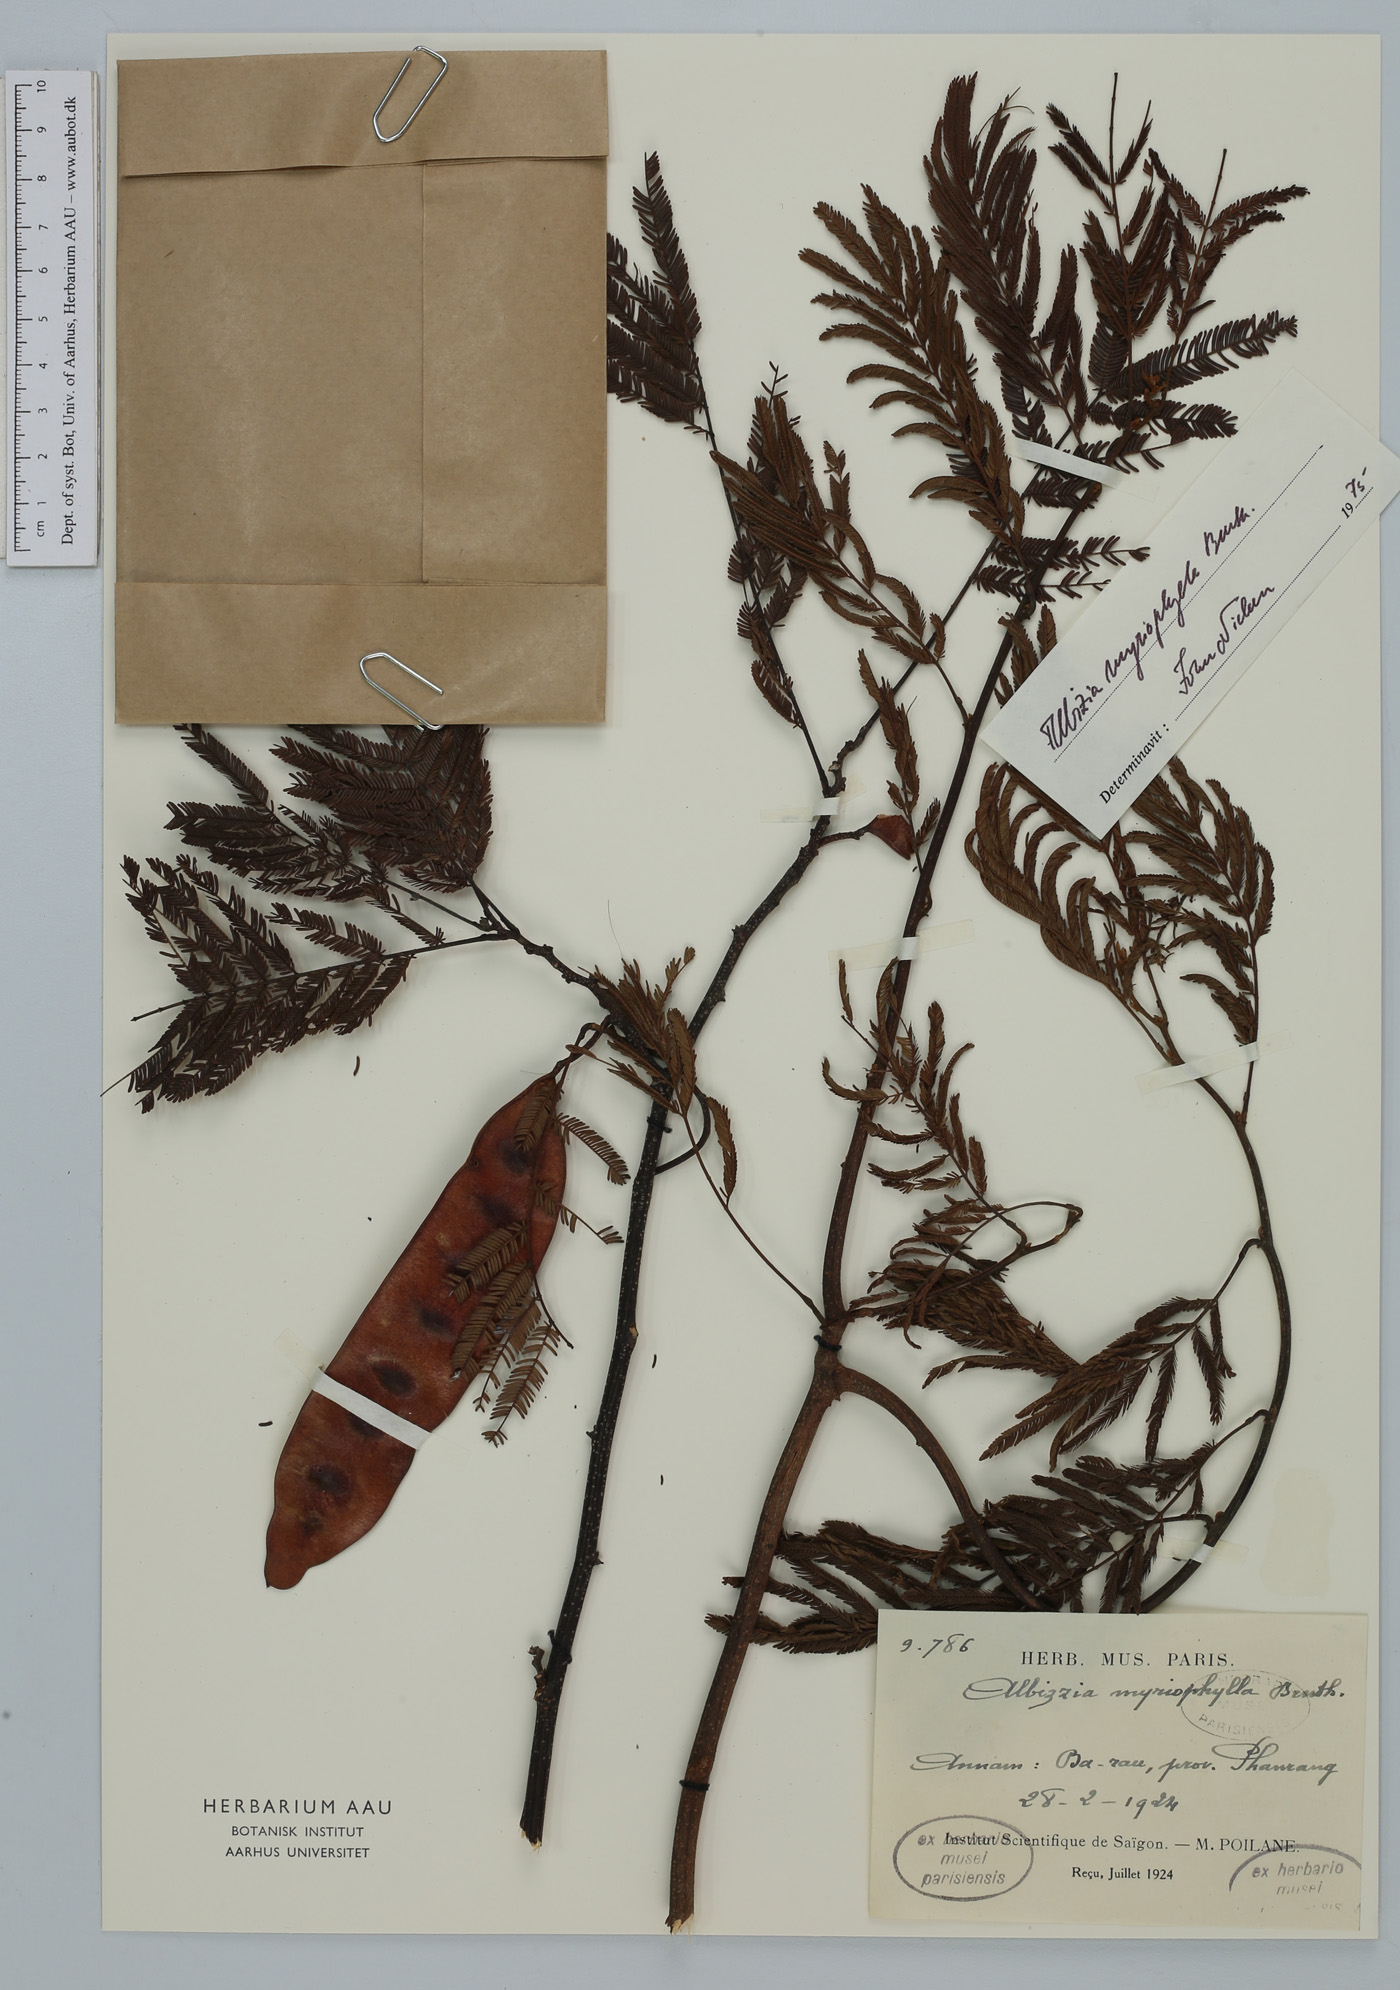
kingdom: Plantae
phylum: Tracheophyta
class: Magnoliopsida
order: Fabales
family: Fabaceae
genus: Albizia
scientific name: Albizia myriophylla
